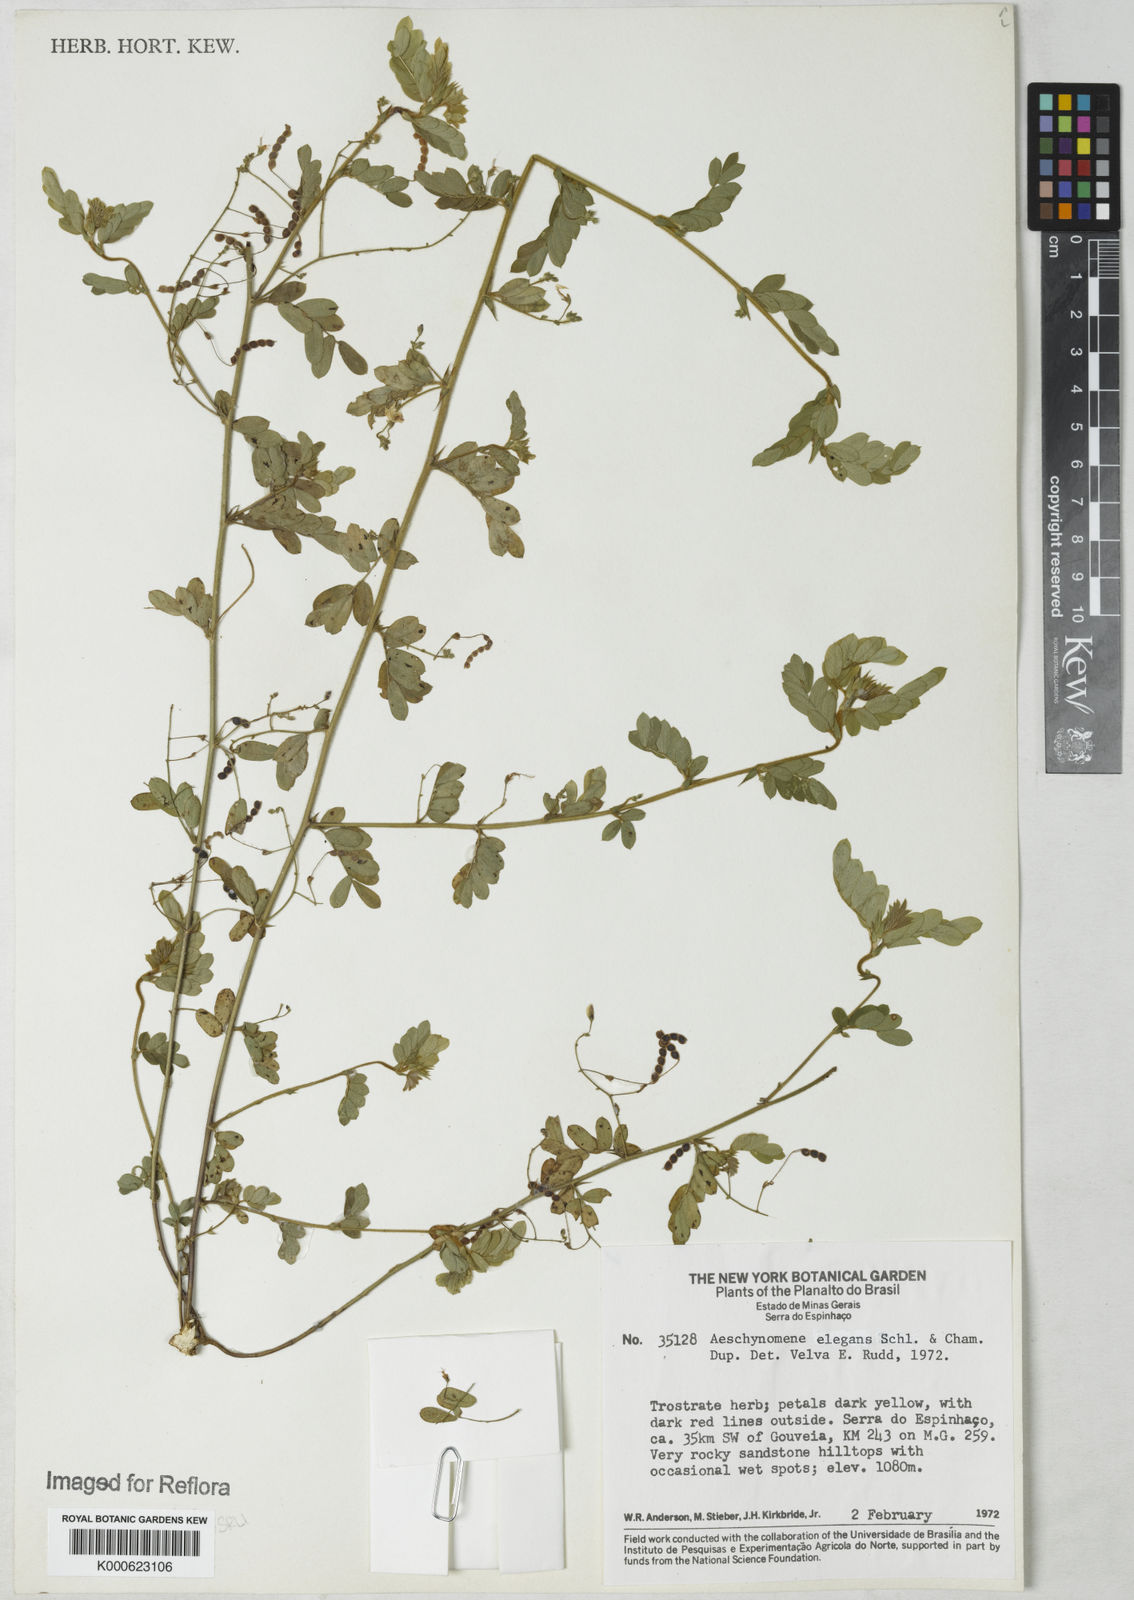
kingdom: Plantae
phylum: Tracheophyta
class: Magnoliopsida
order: Fabales
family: Fabaceae
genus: Ctenodon
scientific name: Ctenodon elegans
